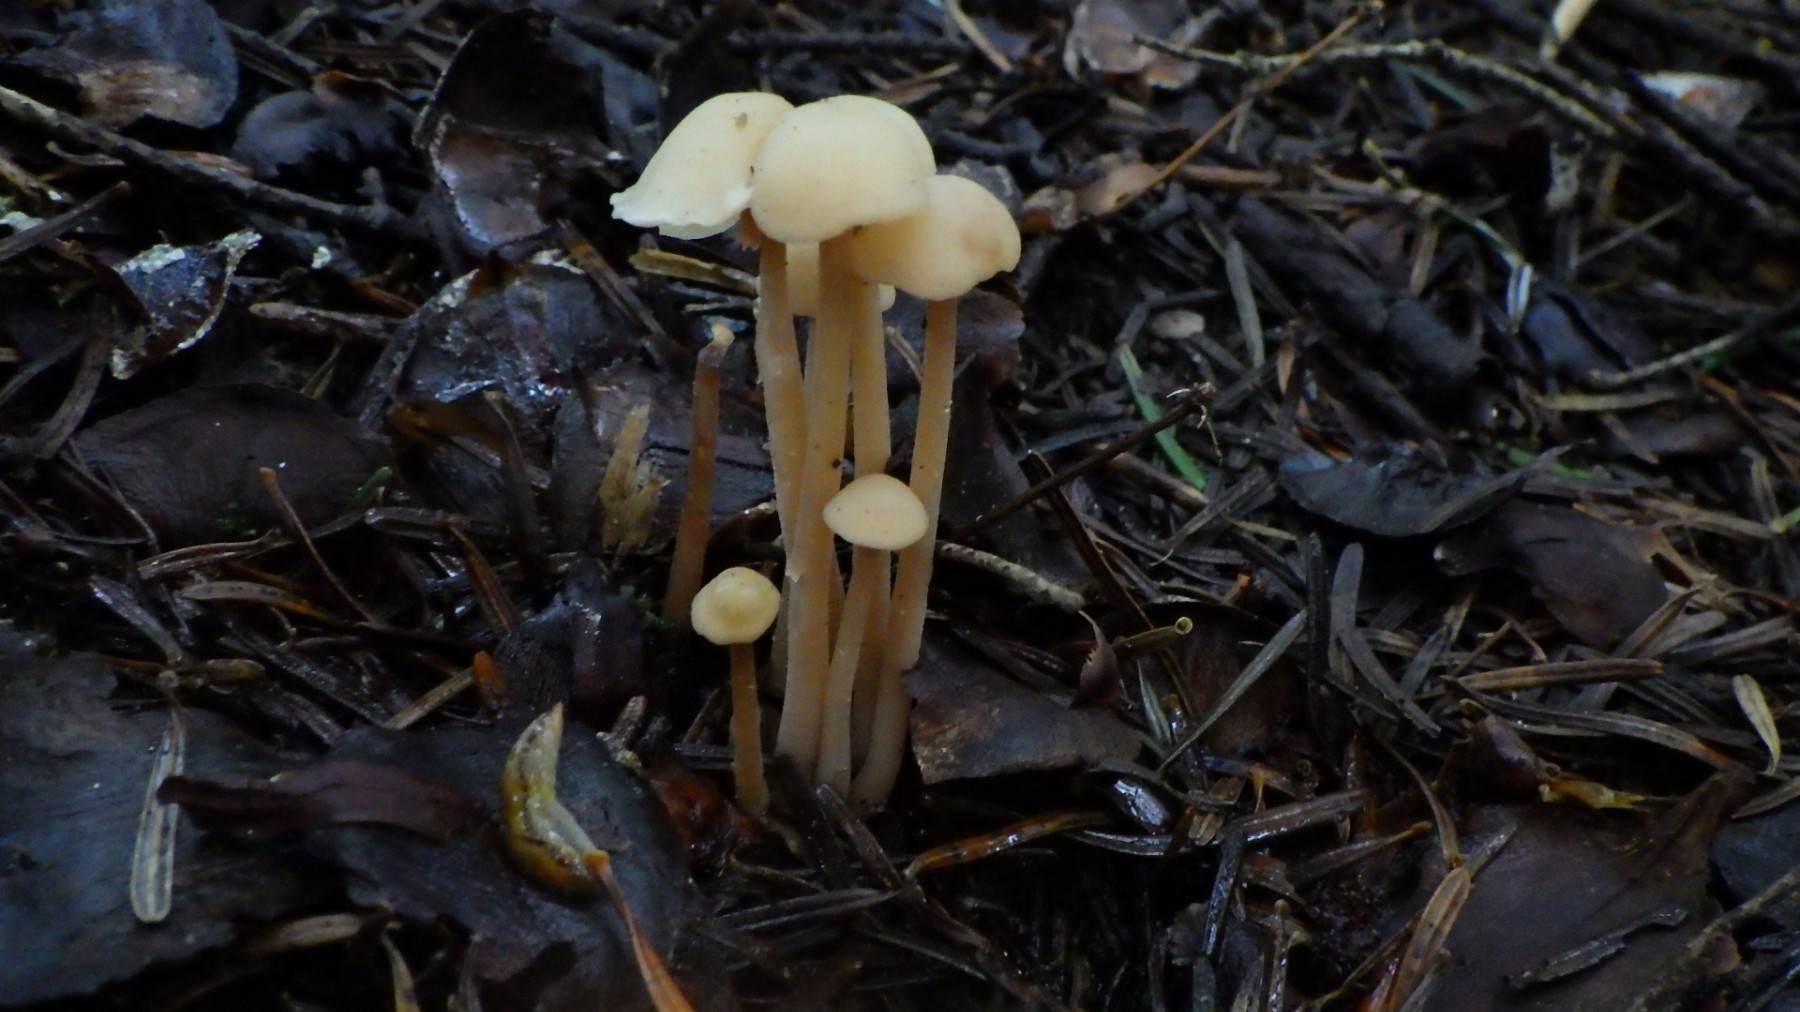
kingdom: Fungi
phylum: Basidiomycota
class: Agaricomycetes
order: Agaricales
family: Omphalotaceae
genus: Collybiopsis
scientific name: Collybiopsis confluens
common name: knippe-fladhat
